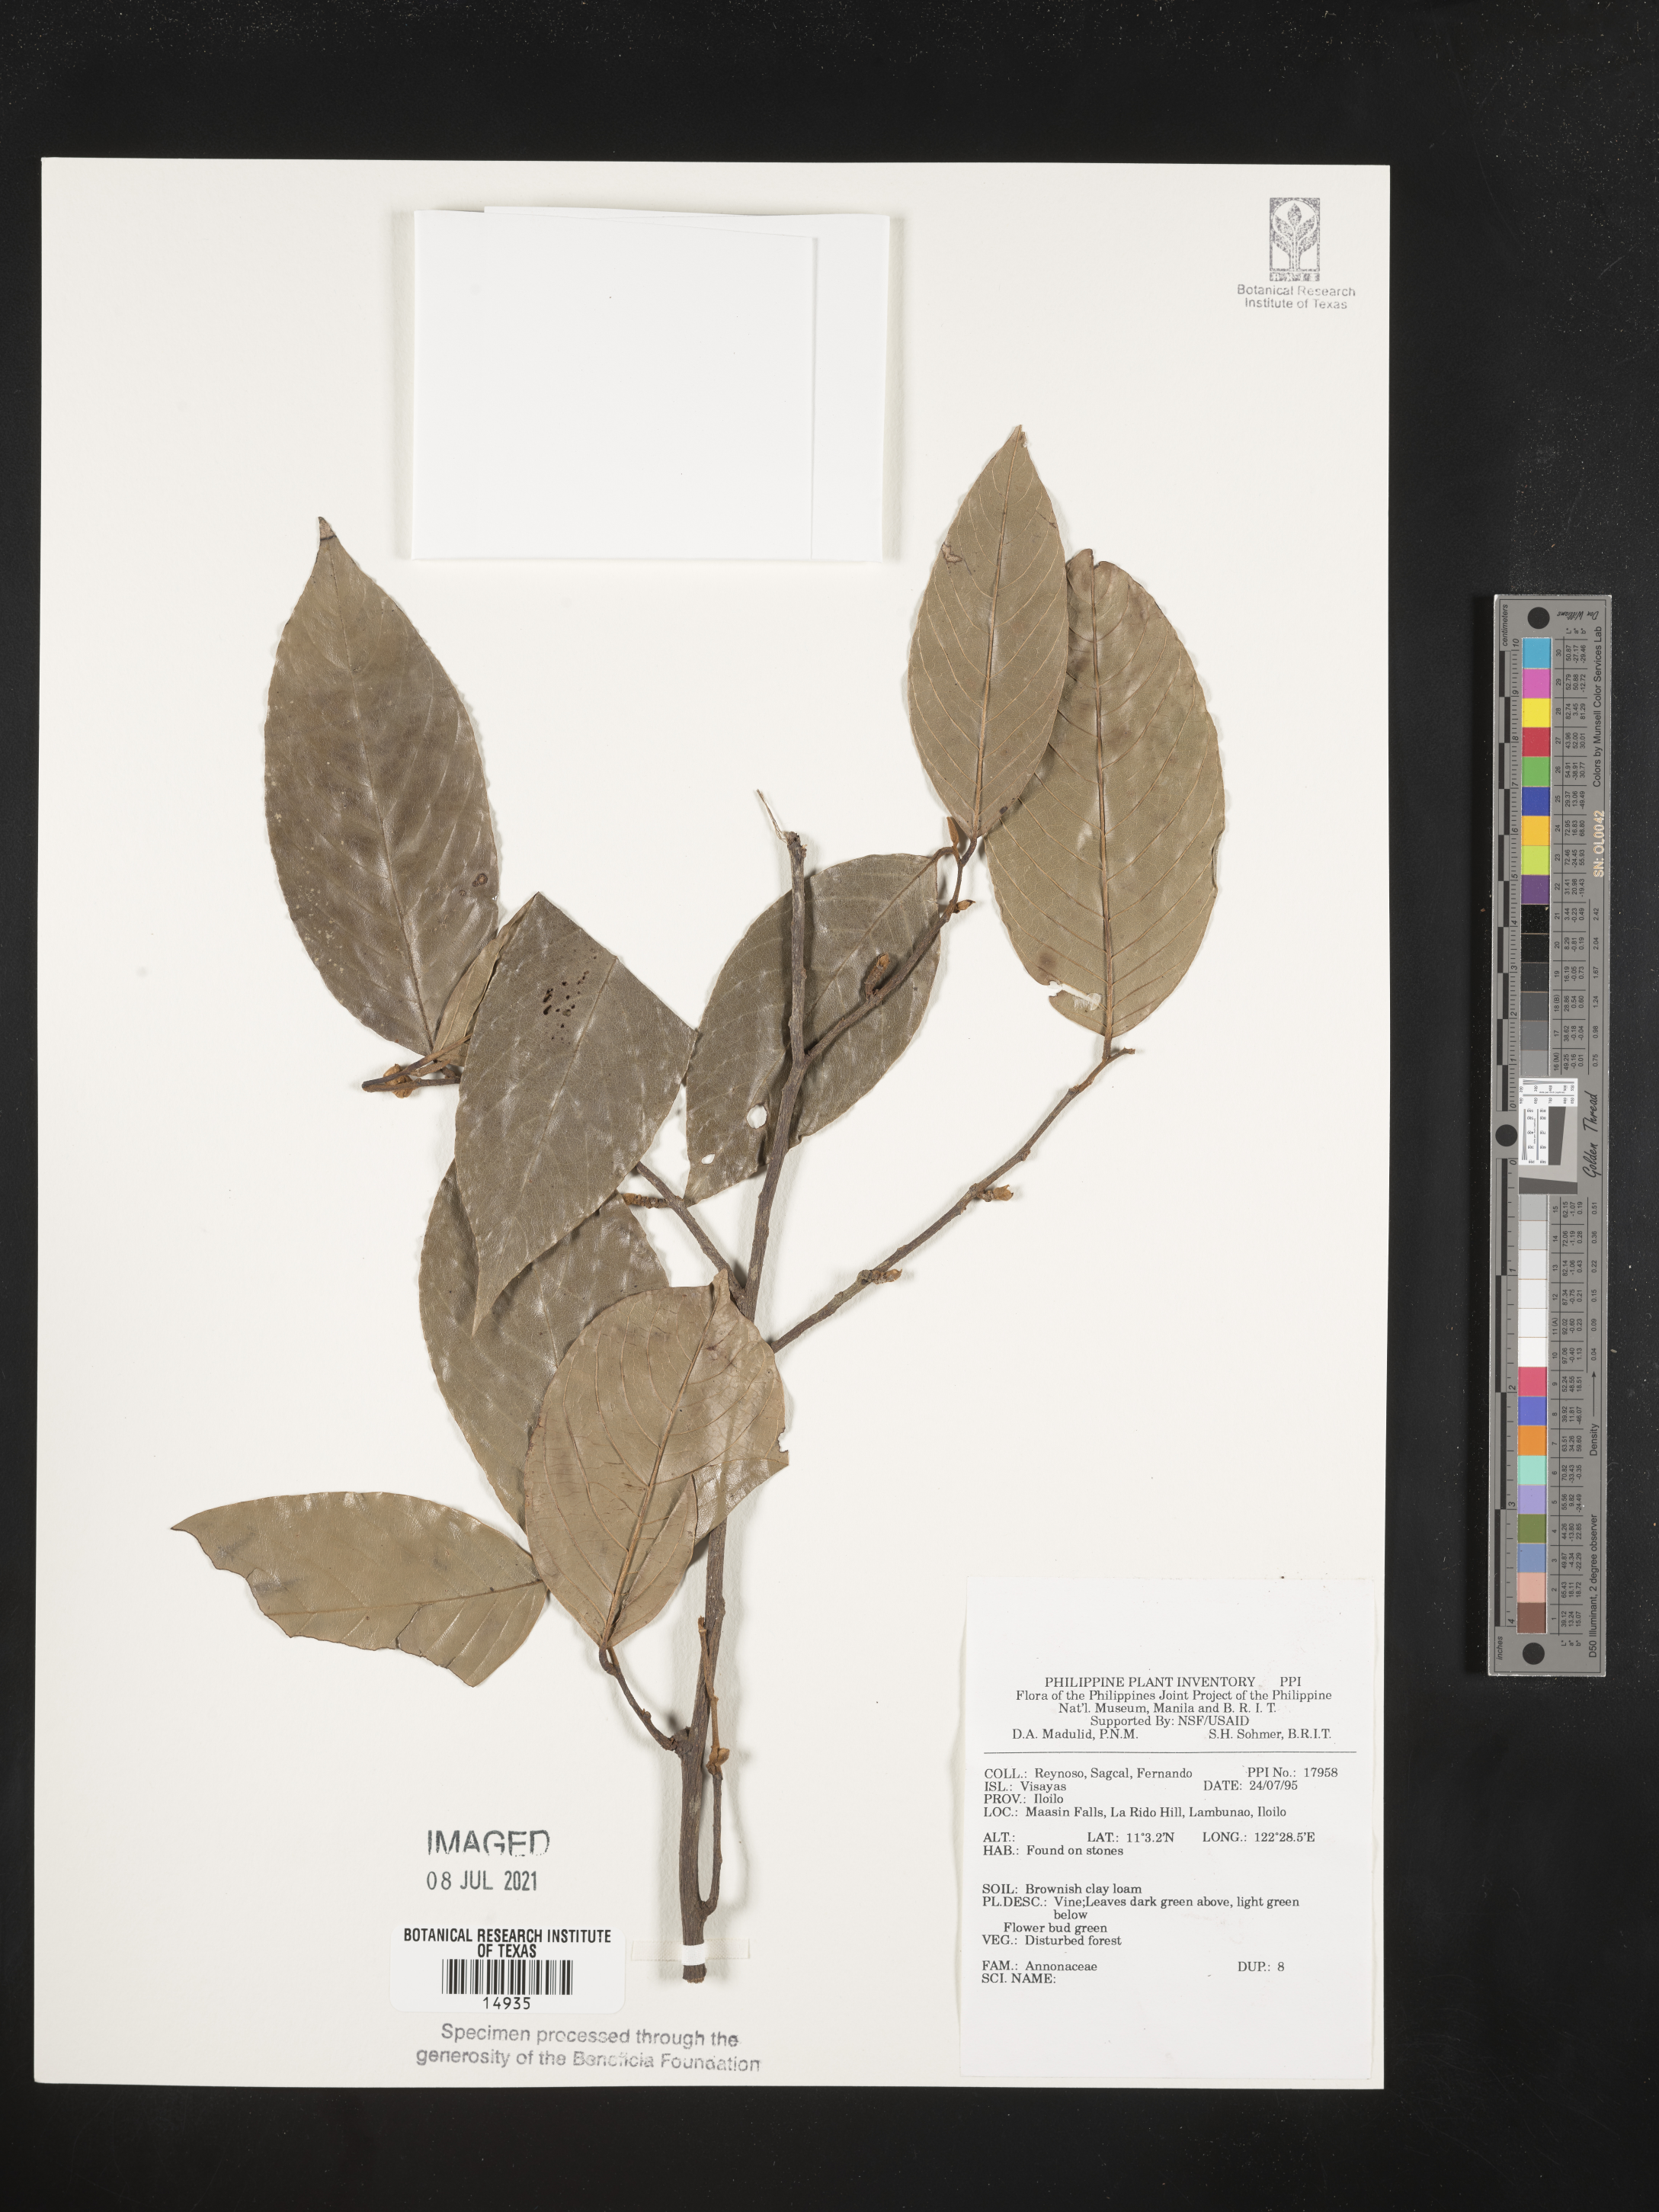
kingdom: Plantae
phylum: Tracheophyta
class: Magnoliopsida
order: Magnoliales
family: Annonaceae
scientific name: Annonaceae
